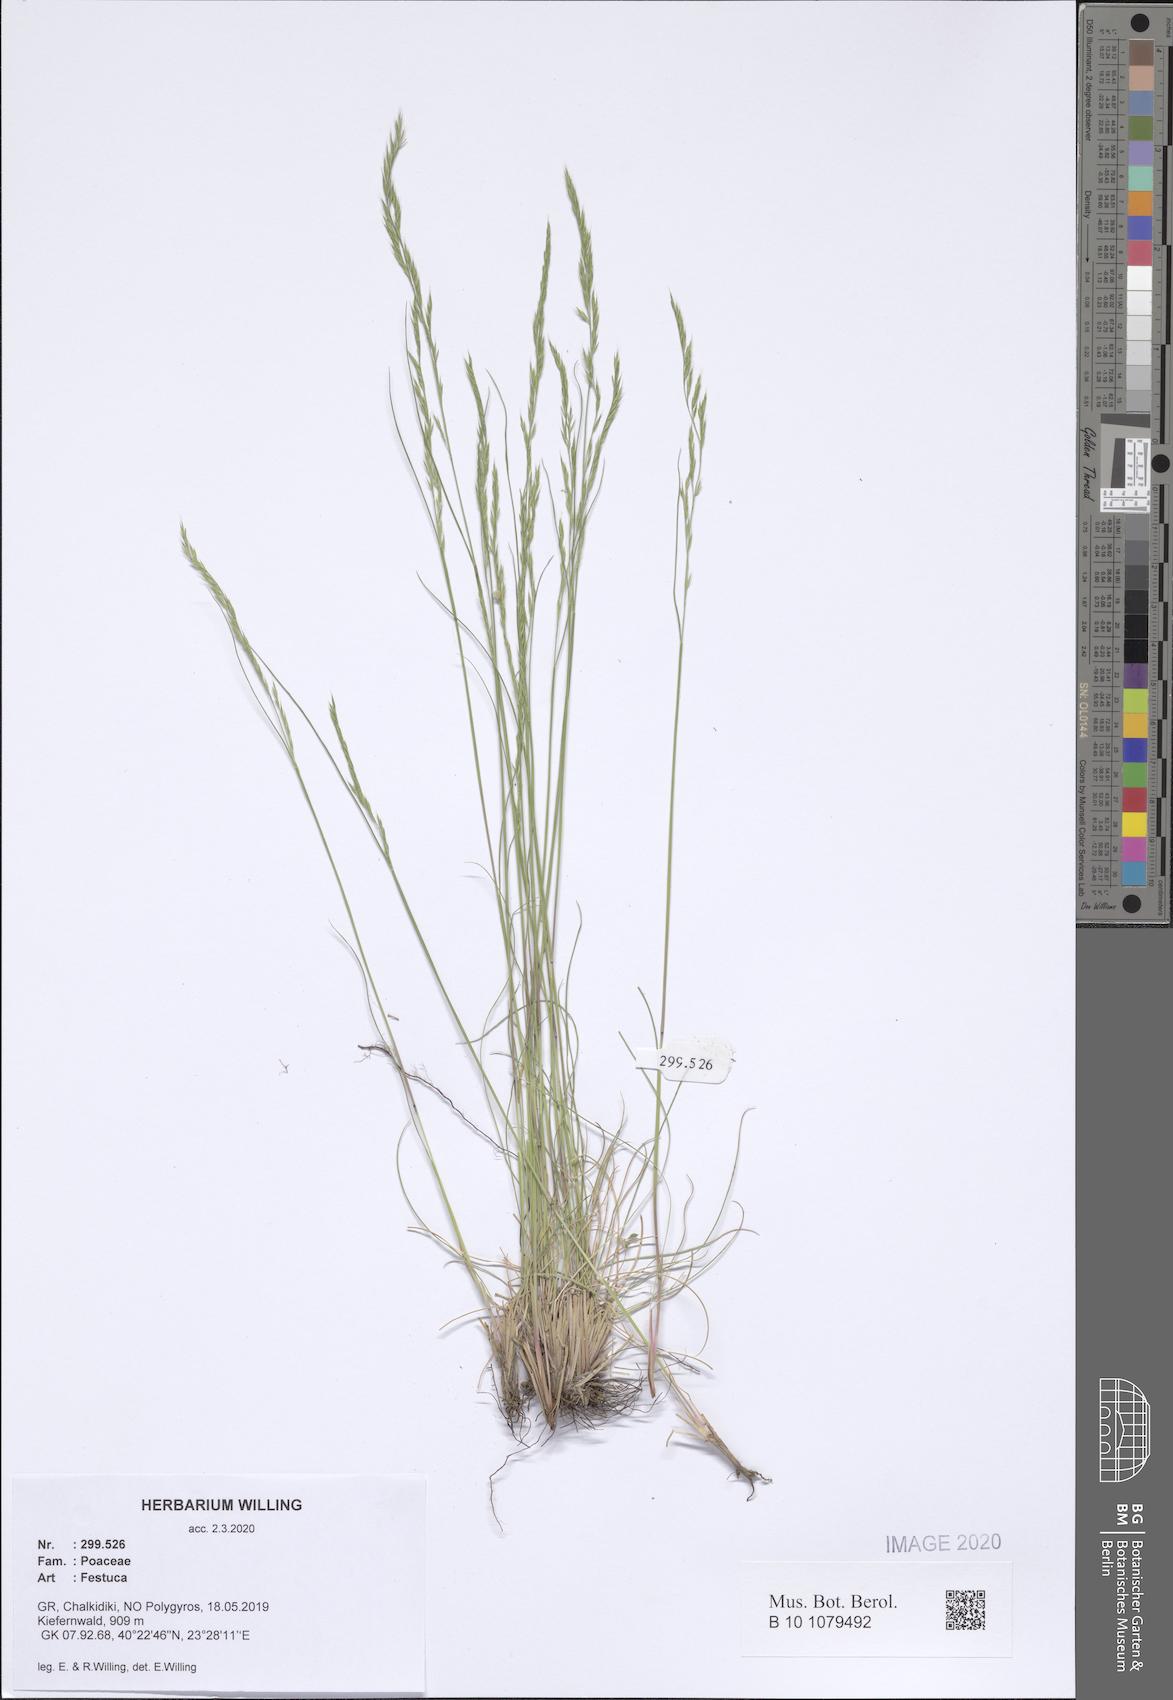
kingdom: Plantae
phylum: Tracheophyta
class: Liliopsida
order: Poales
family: Poaceae
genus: Festuca
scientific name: Festuca
